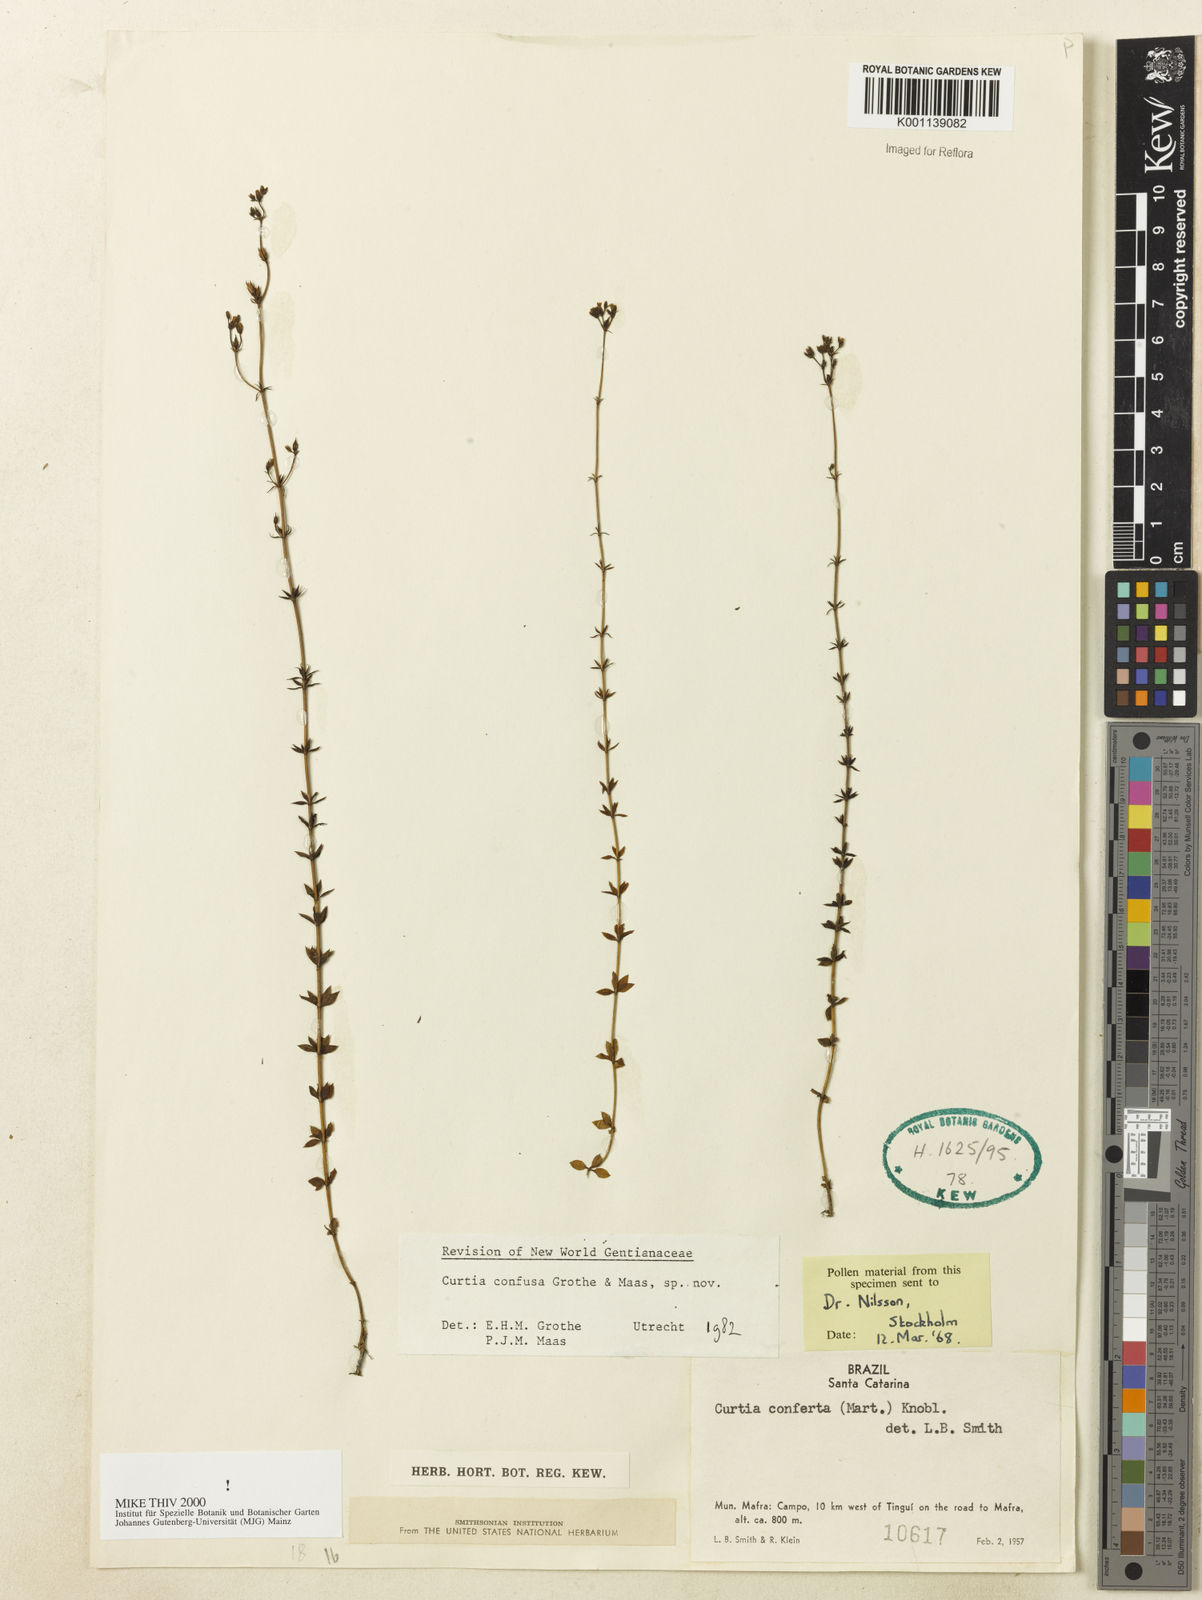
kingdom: Plantae
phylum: Tracheophyta
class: Magnoliopsida
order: Gentianales
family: Gentianaceae
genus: Curtia
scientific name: Curtia conferta
